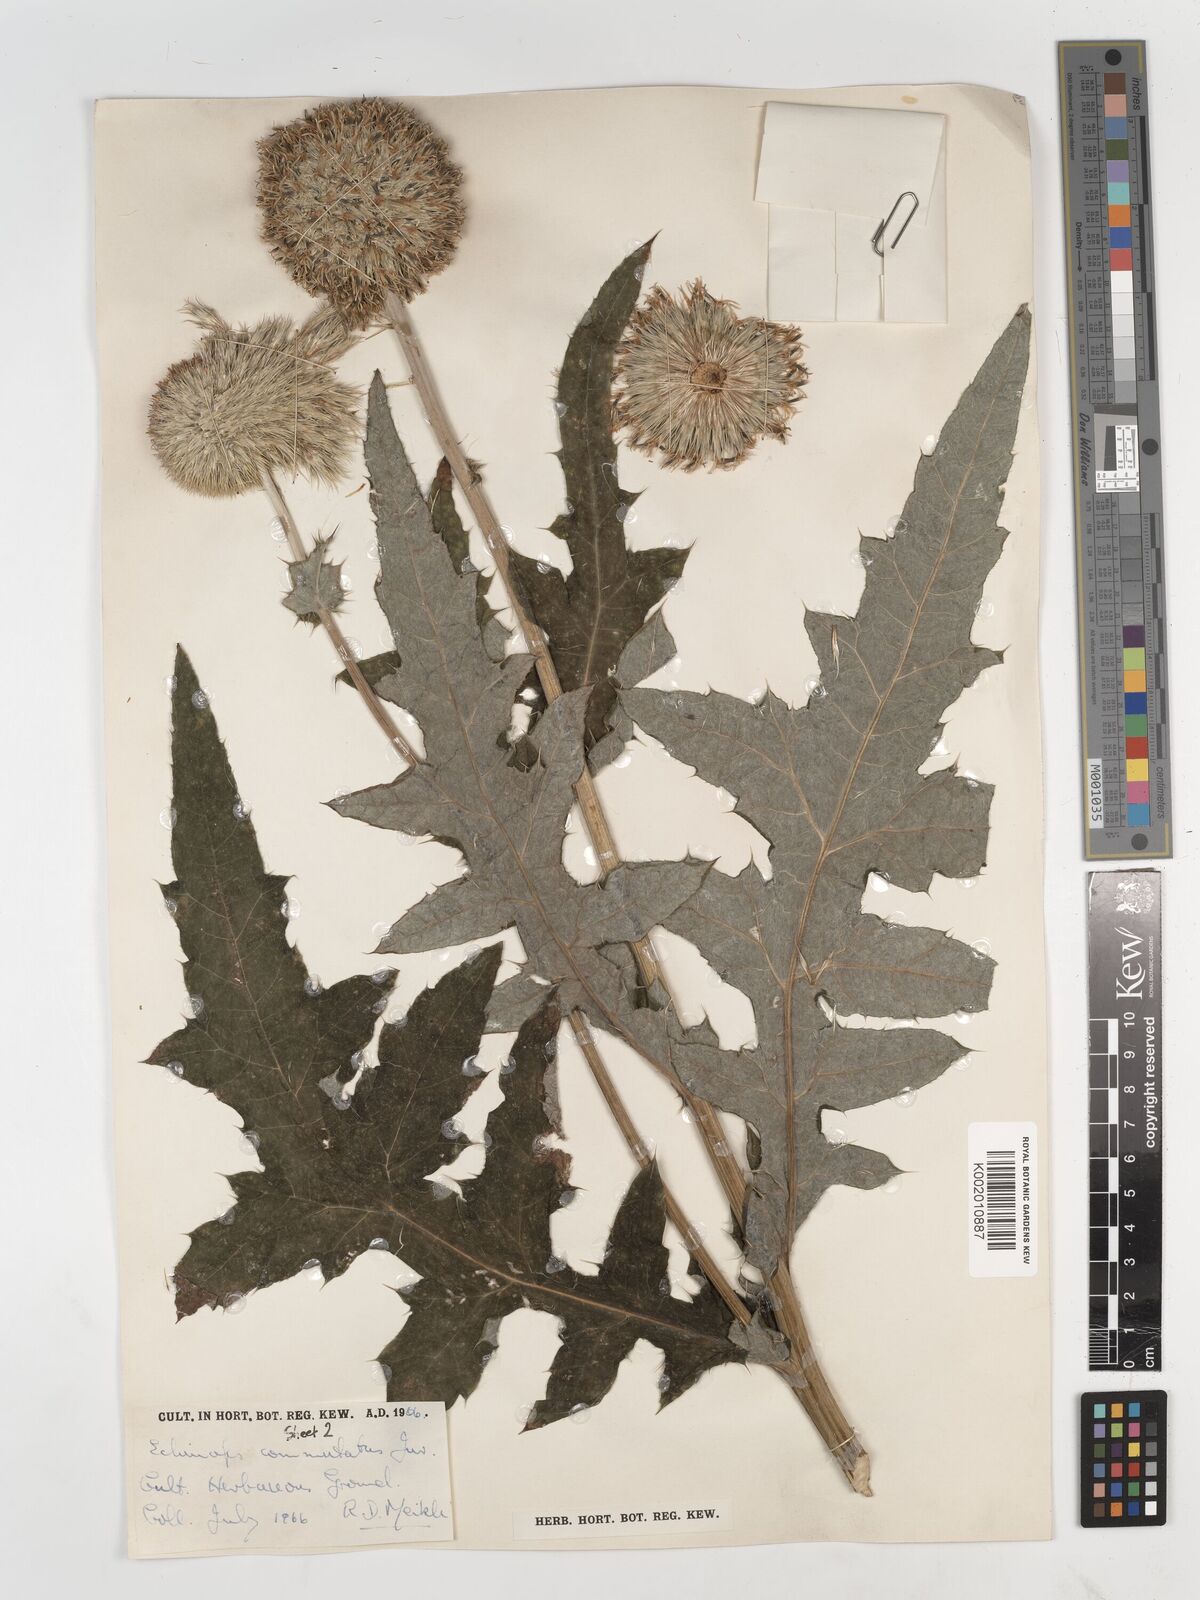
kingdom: Plantae
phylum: Tracheophyta
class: Magnoliopsida
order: Asterales
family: Asteraceae
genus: Echinops
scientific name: Echinops exaltatus
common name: Globe-thistle
